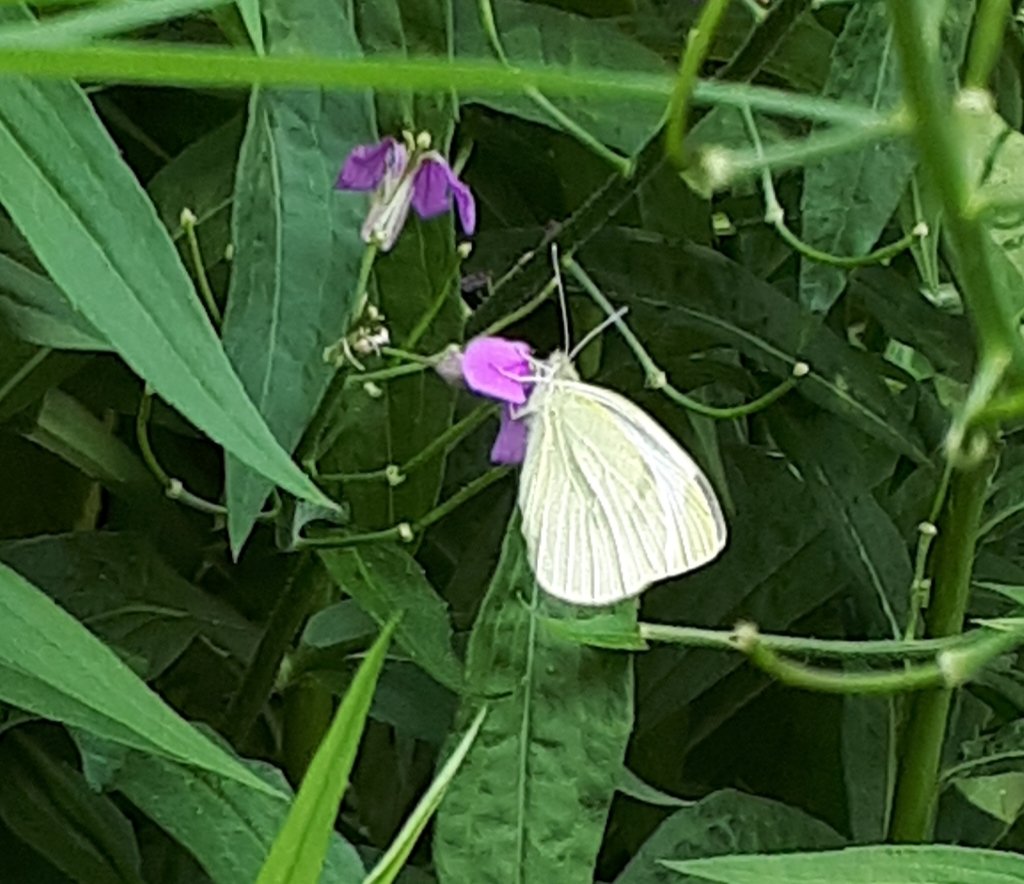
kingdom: Animalia
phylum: Arthropoda
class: Insecta
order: Lepidoptera
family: Pieridae
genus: Pieris
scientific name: Pieris rapae
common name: Cabbage White
